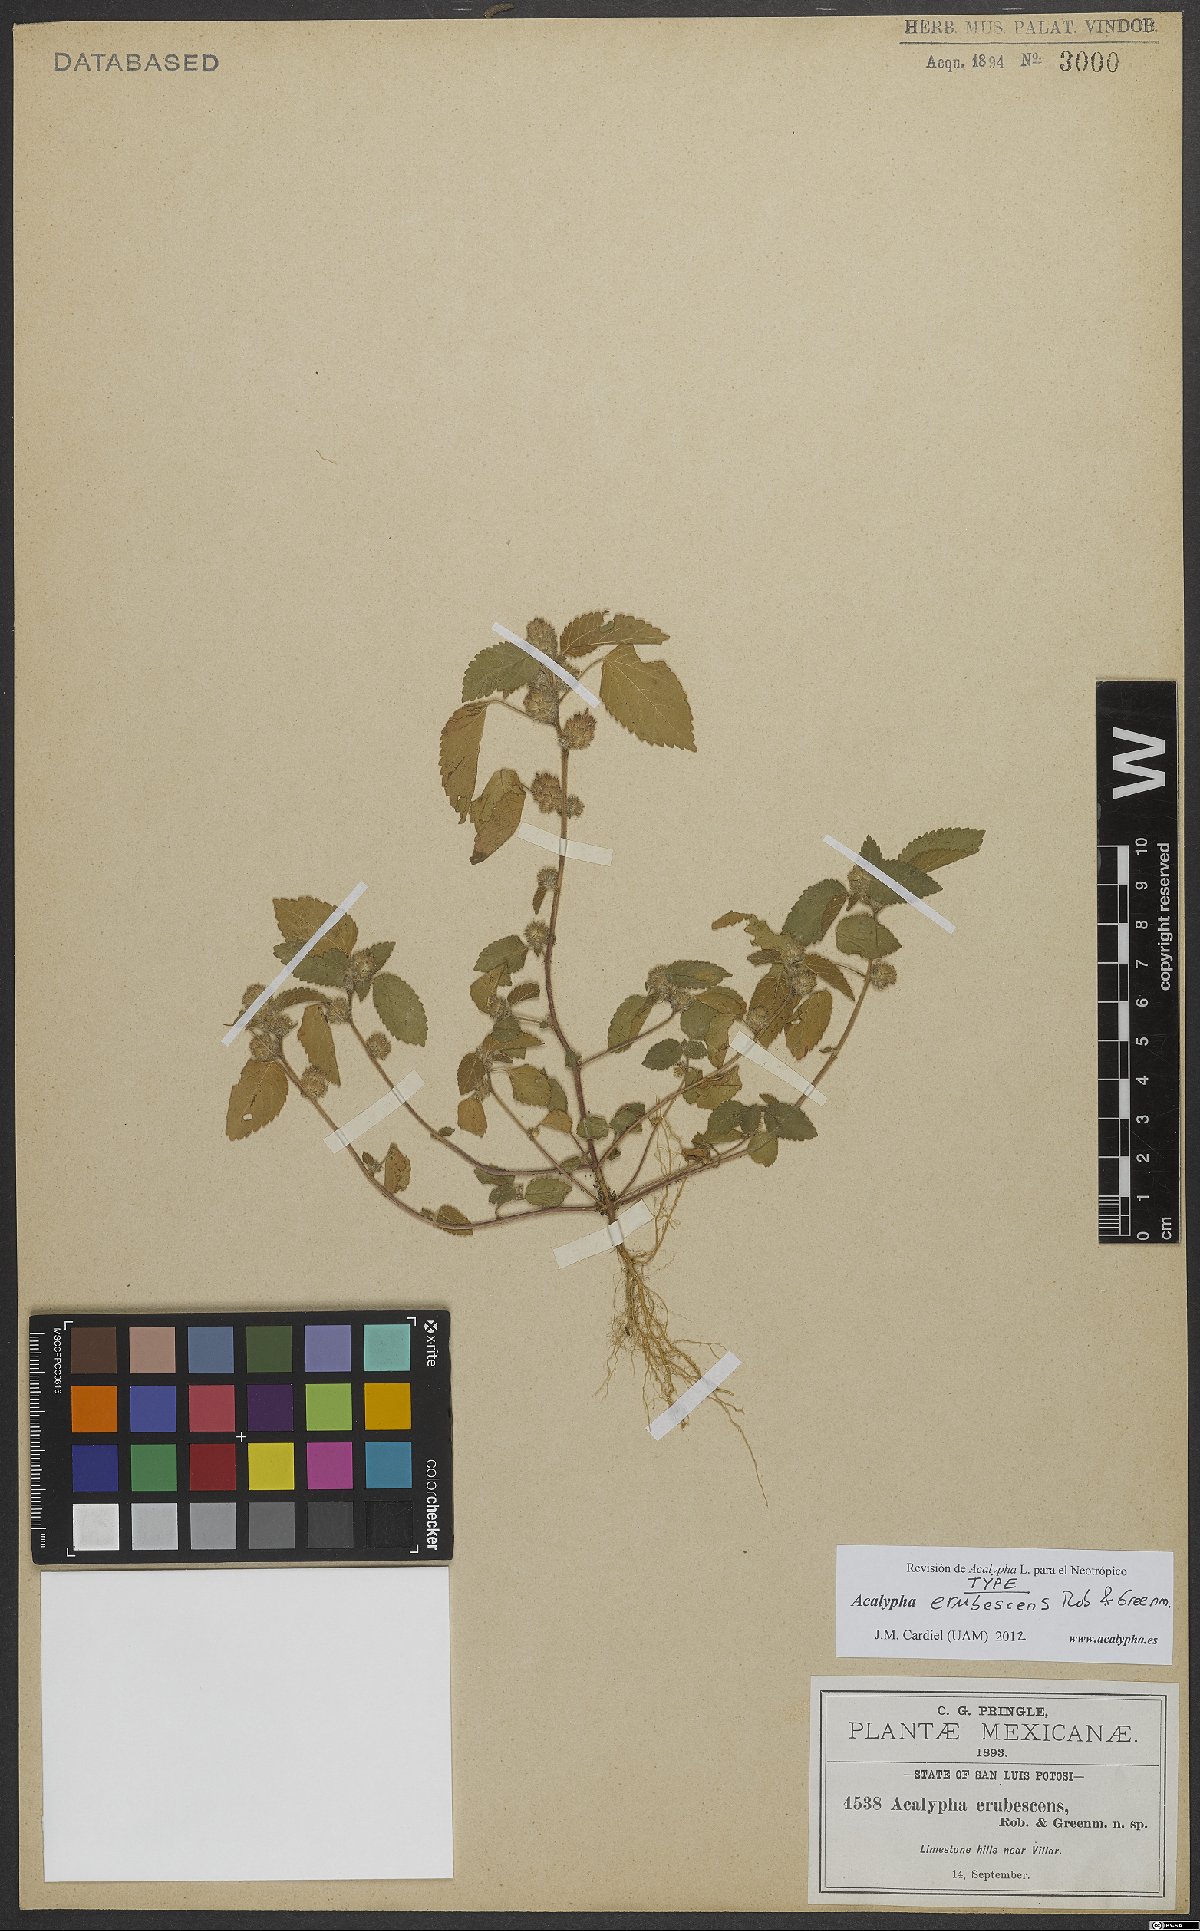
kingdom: Plantae
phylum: Tracheophyta
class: Magnoliopsida
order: Malpighiales
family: Euphorbiaceae
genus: Acalypha
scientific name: Acalypha erubescens
